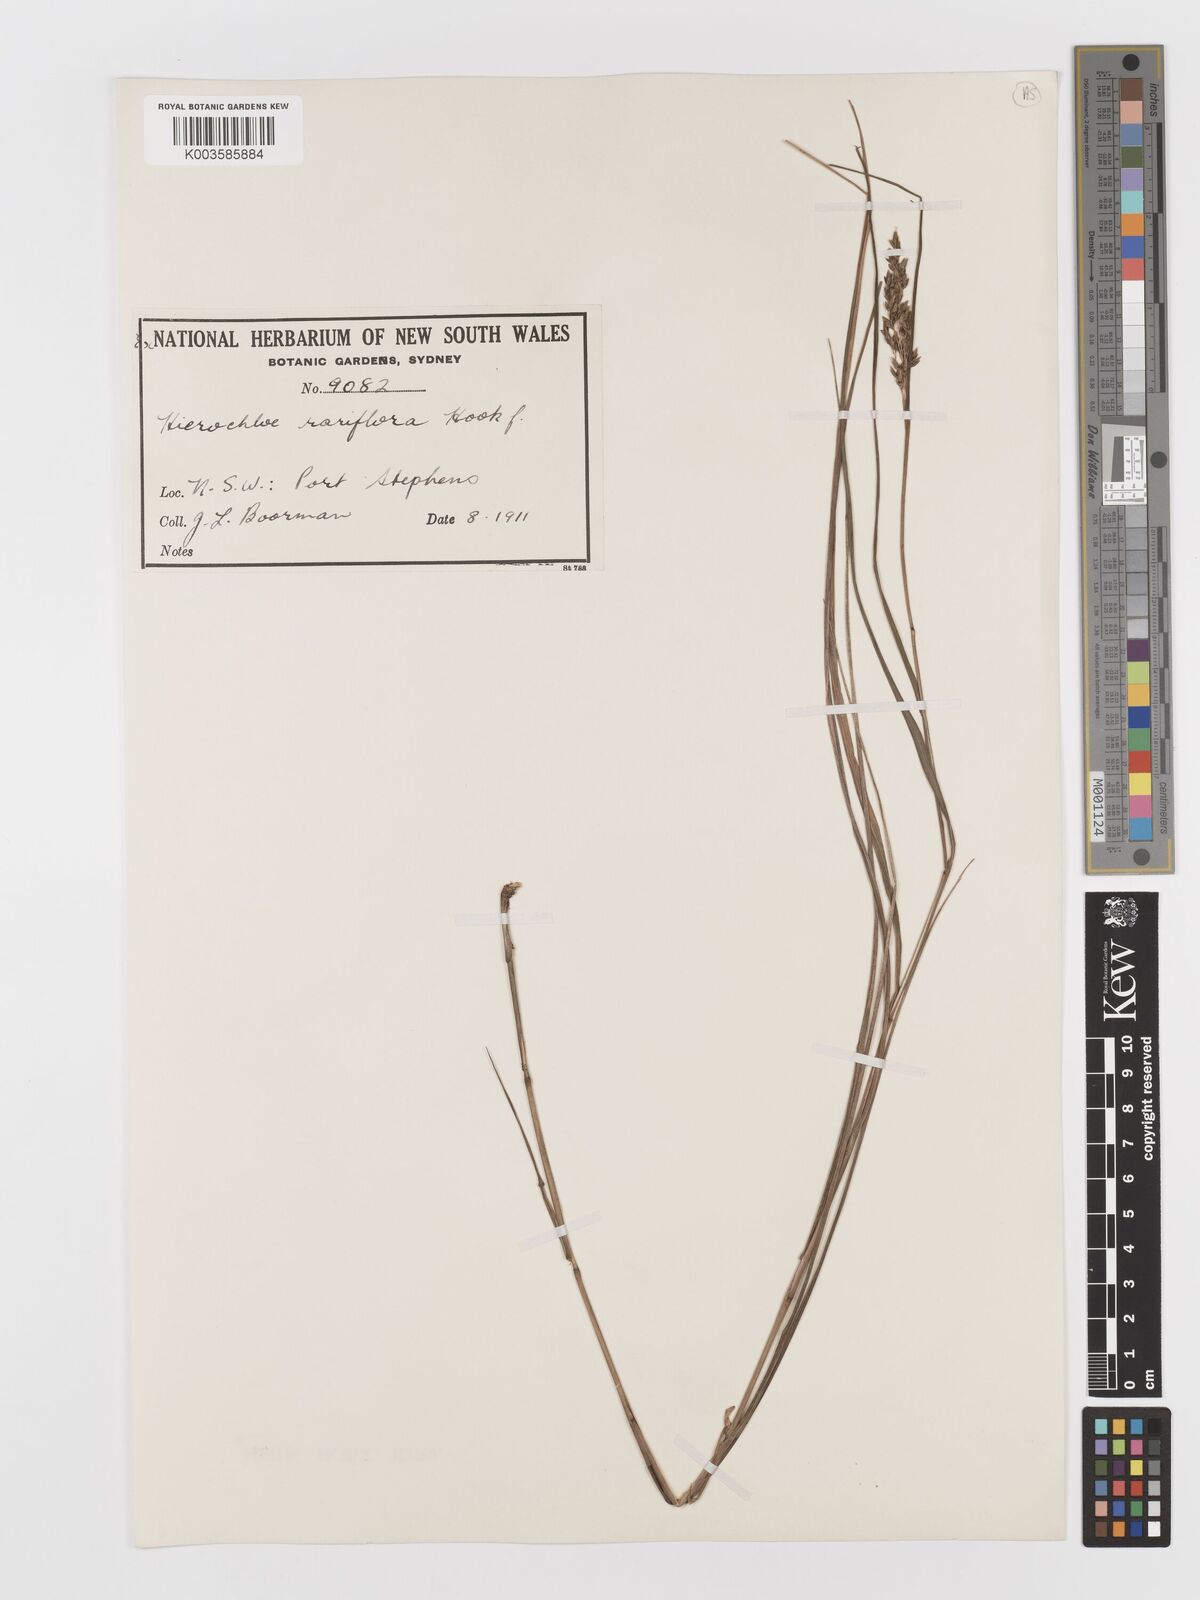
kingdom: Plantae
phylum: Tracheophyta
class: Liliopsida
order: Poales
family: Poaceae
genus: Anthoxanthum
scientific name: Anthoxanthum rariflorum
